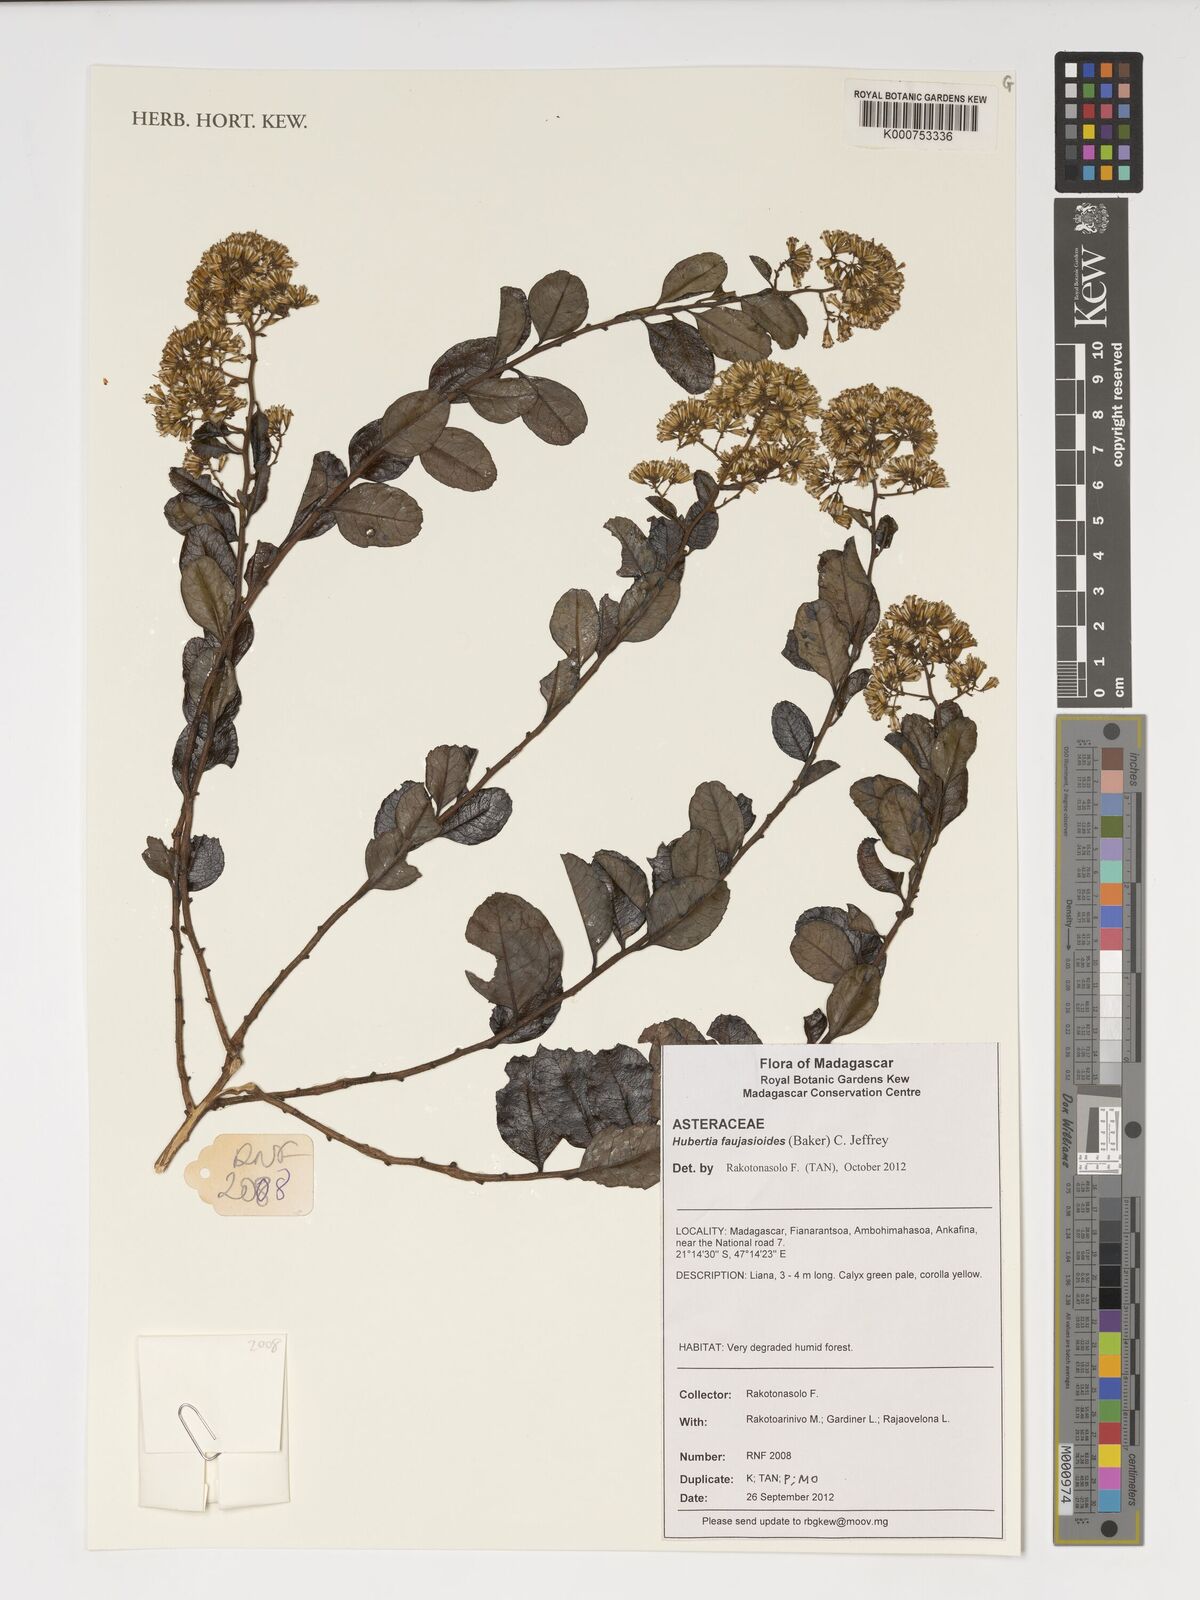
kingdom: Plantae
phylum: Tracheophyta
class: Magnoliopsida
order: Asterales
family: Asteraceae
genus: Hubertia
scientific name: Hubertia faujasioides
